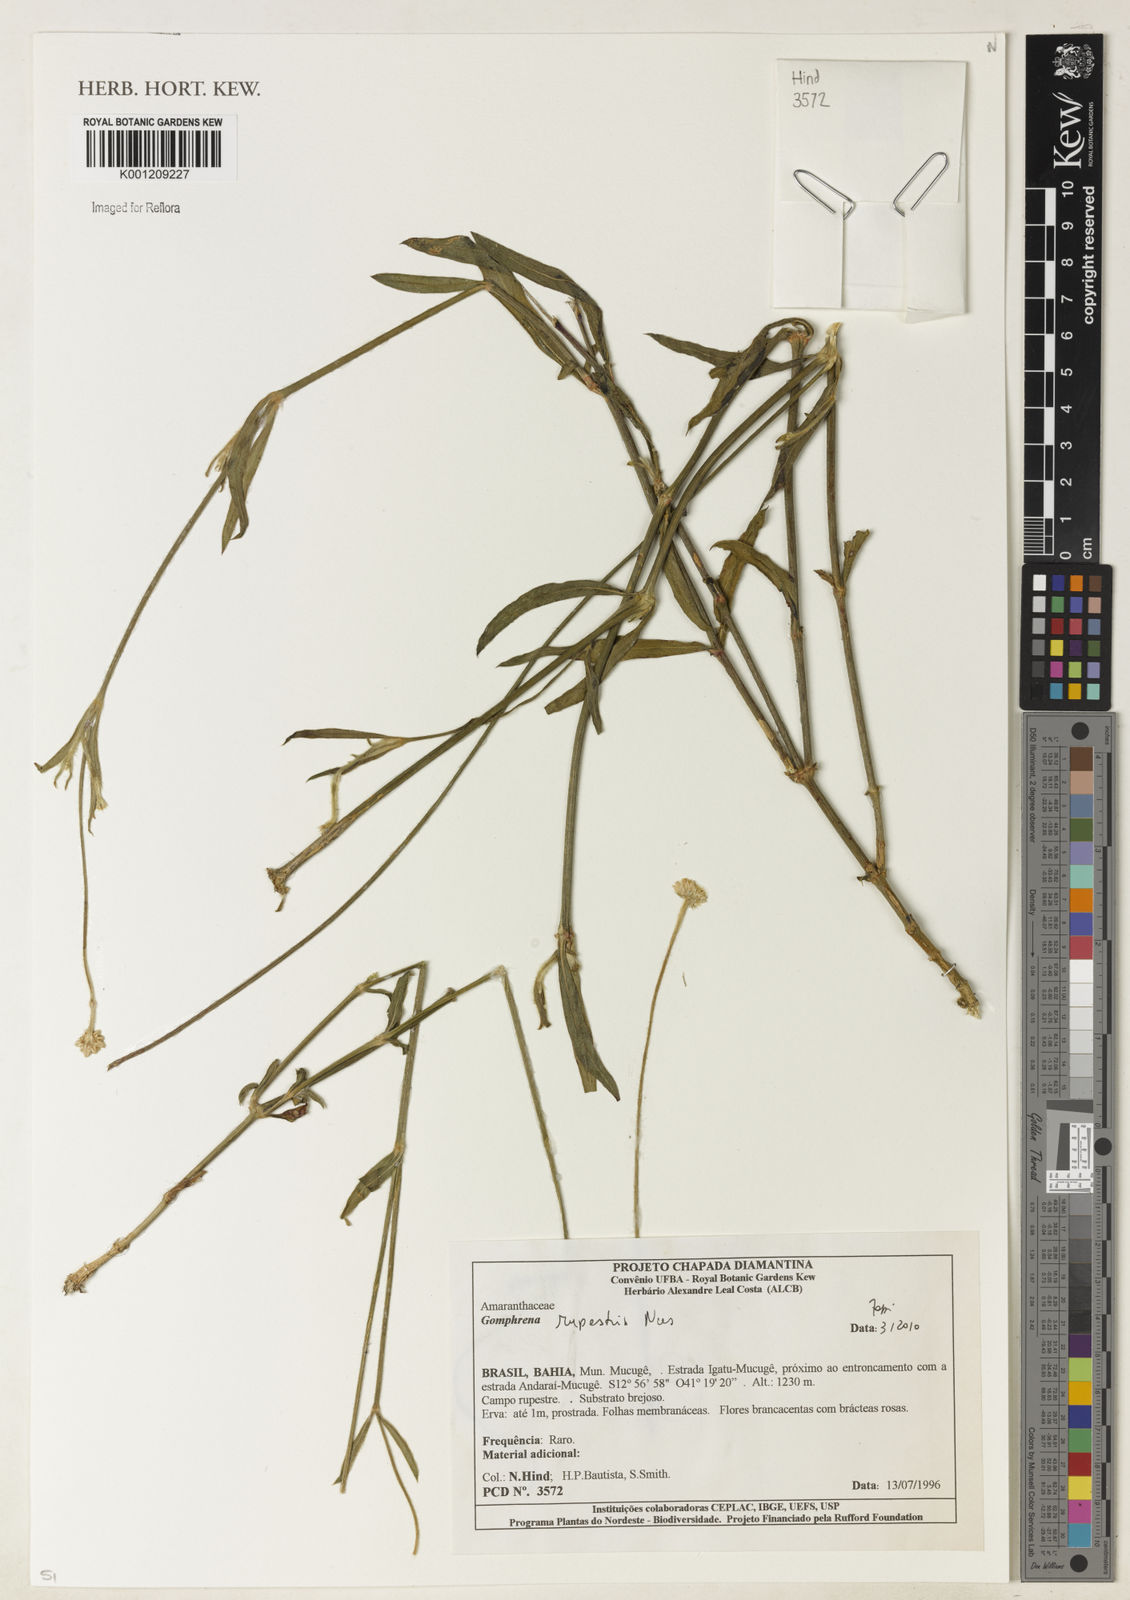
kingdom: Plantae
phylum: Tracheophyta
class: Magnoliopsida
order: Caryophyllales
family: Amaranthaceae
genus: Gomphrena
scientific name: Gomphrena rupestris
